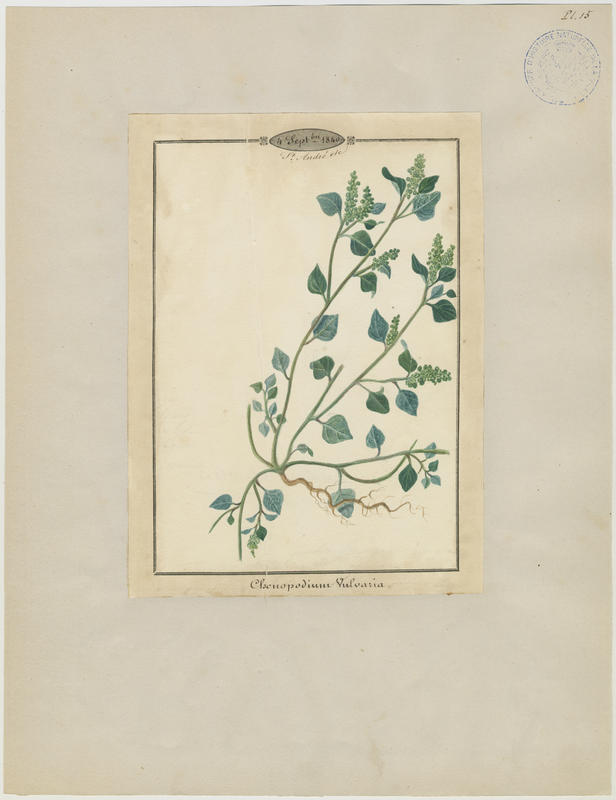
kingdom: Plantae
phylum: Tracheophyta
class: Magnoliopsida
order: Caryophyllales
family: Amaranthaceae
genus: Chenopodium
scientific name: Chenopodium vulvaria
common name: Stinking goosefoot
